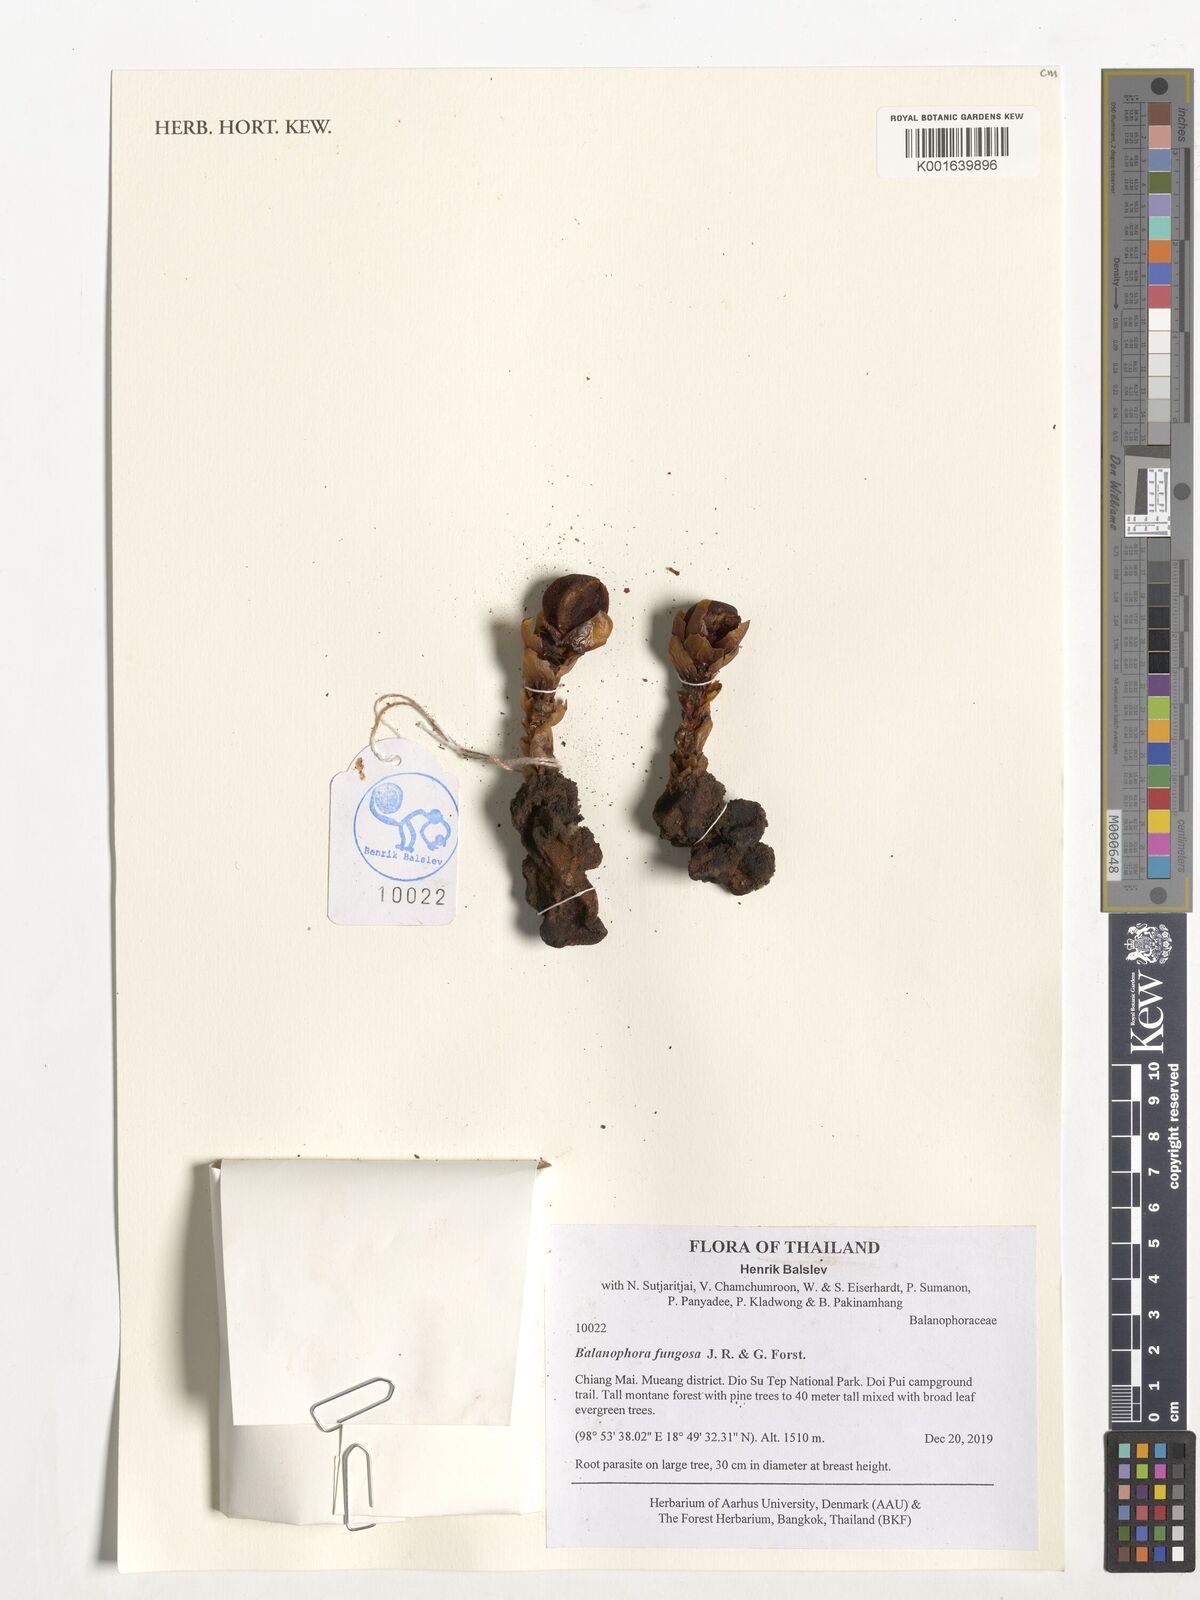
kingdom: Plantae
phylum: Tracheophyta
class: Magnoliopsida
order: Santalales
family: Balanophoraceae
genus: Balanophora
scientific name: Balanophora fungosa
